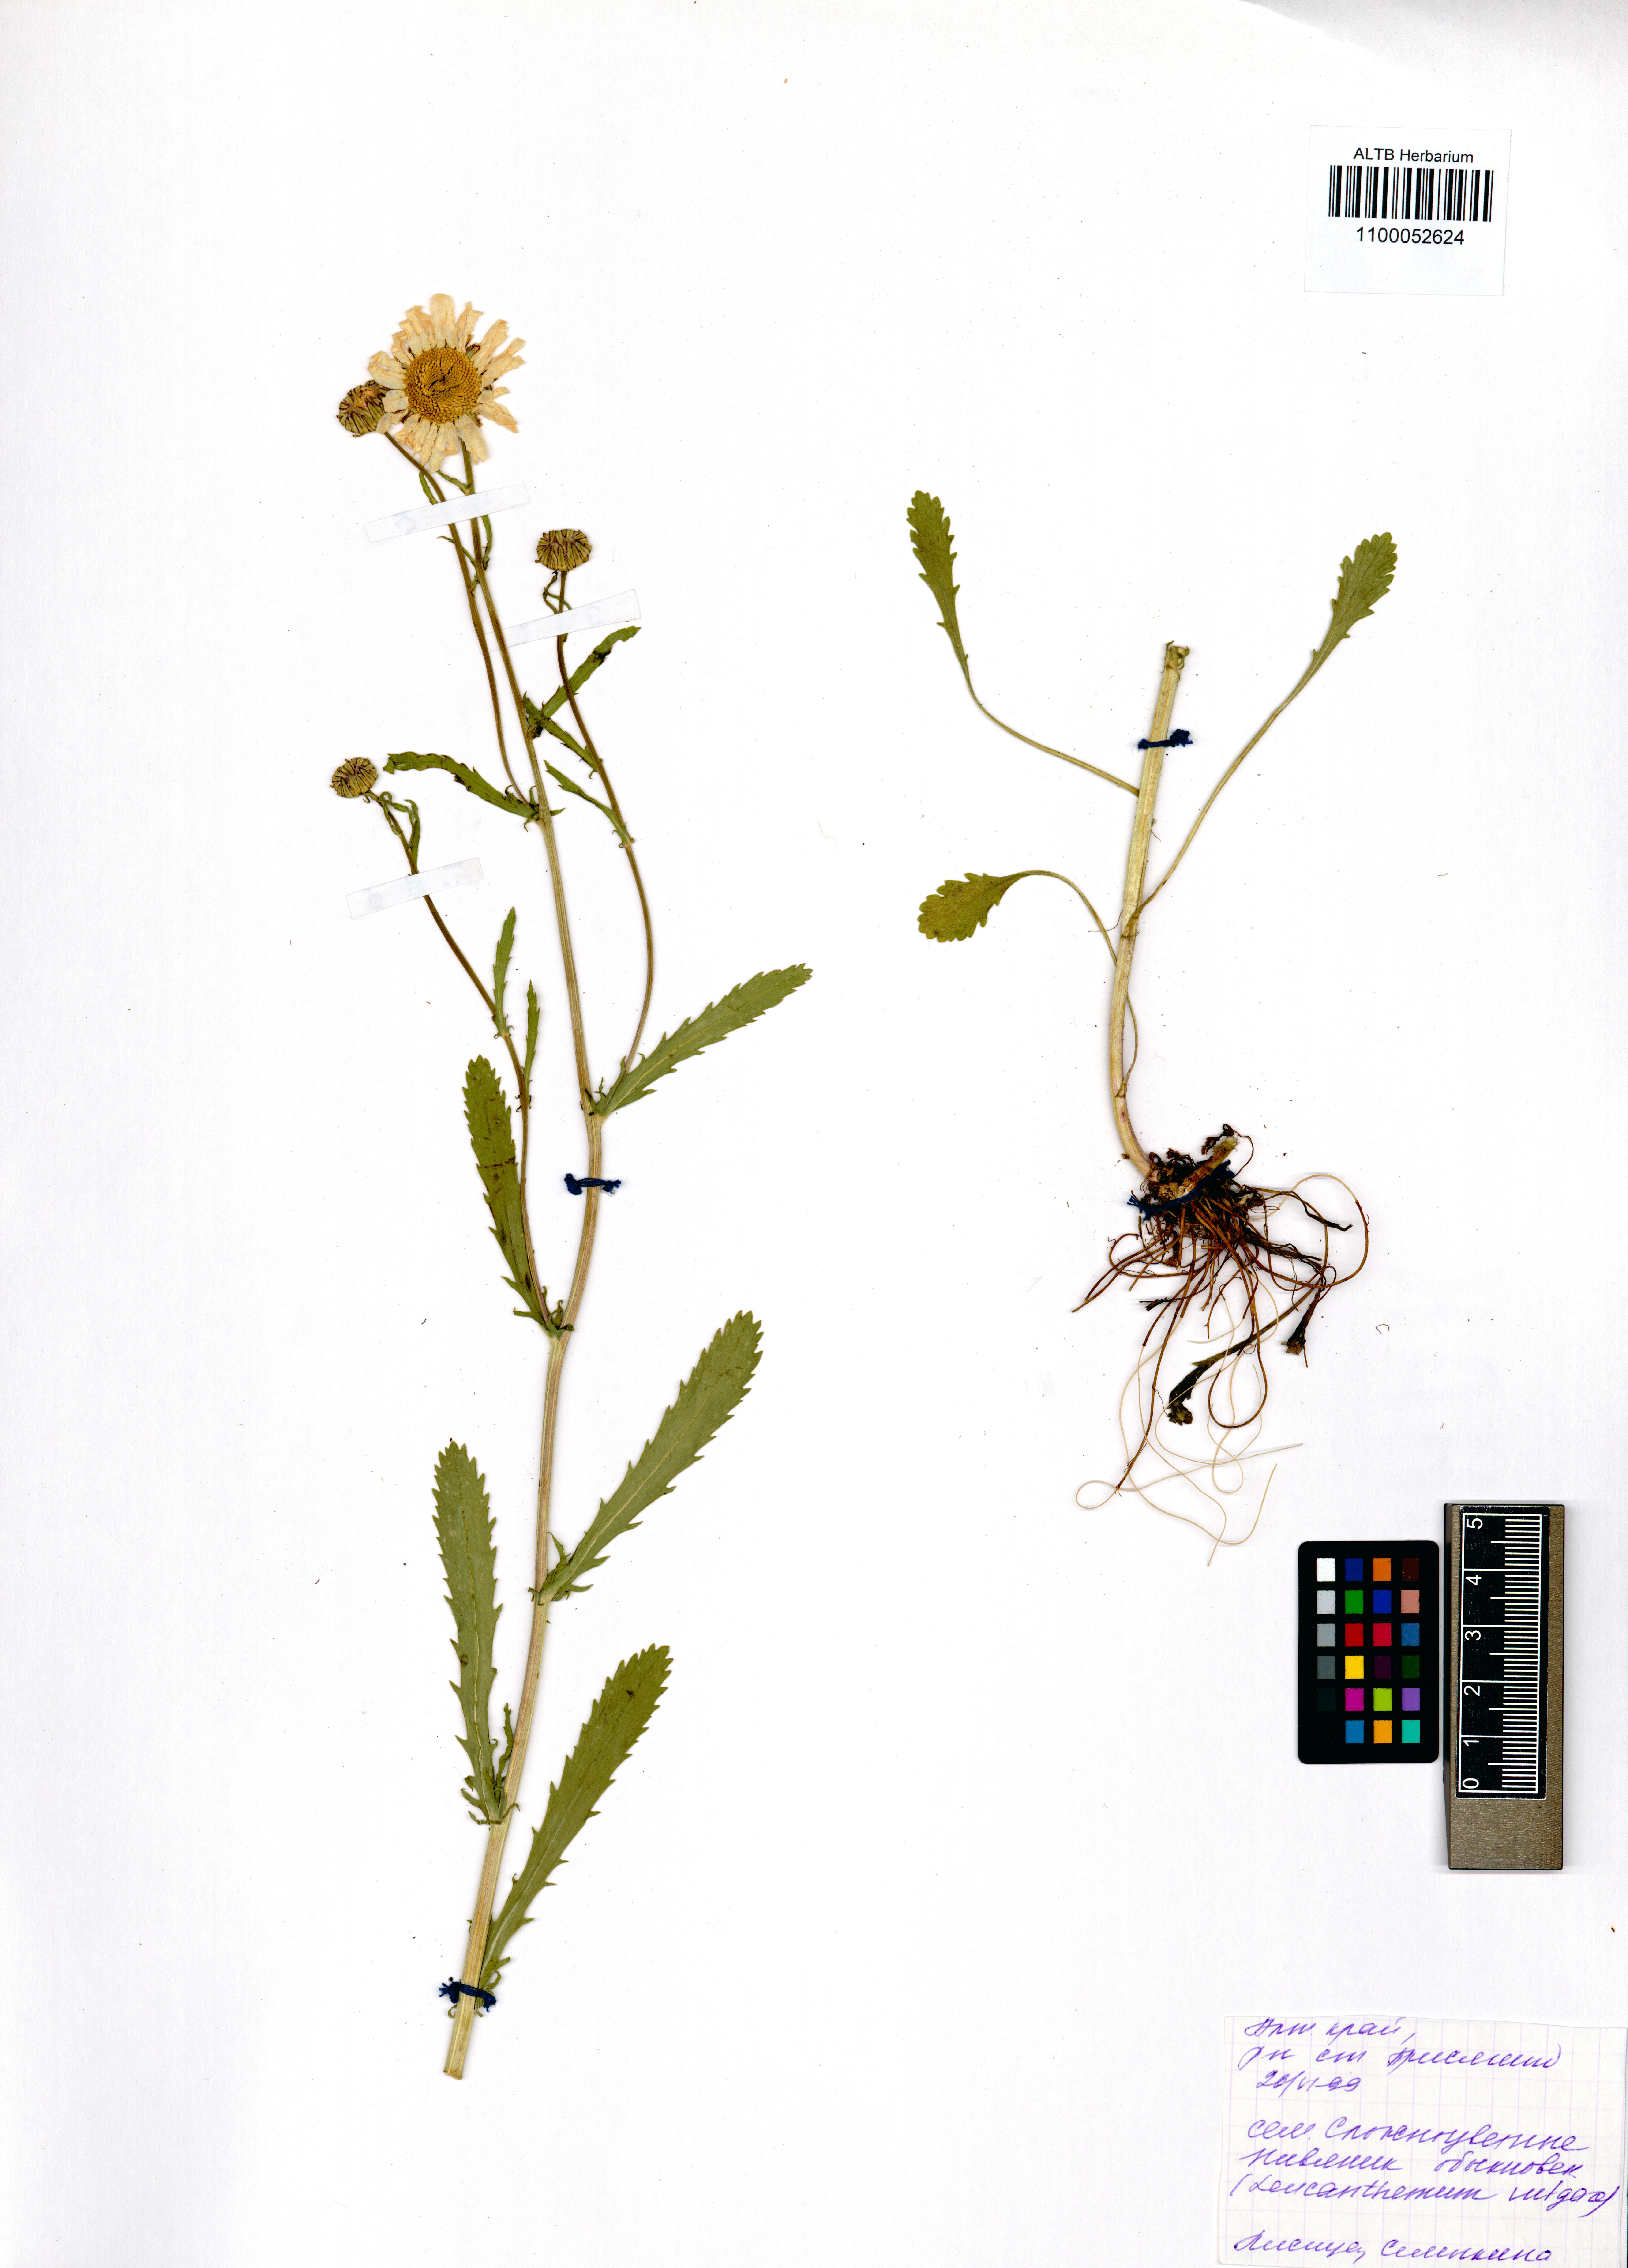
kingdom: Plantae
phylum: Tracheophyta
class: Magnoliopsida
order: Asterales
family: Asteraceae
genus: Leucanthemum
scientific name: Leucanthemum vulgare
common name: Oxeye daisy
